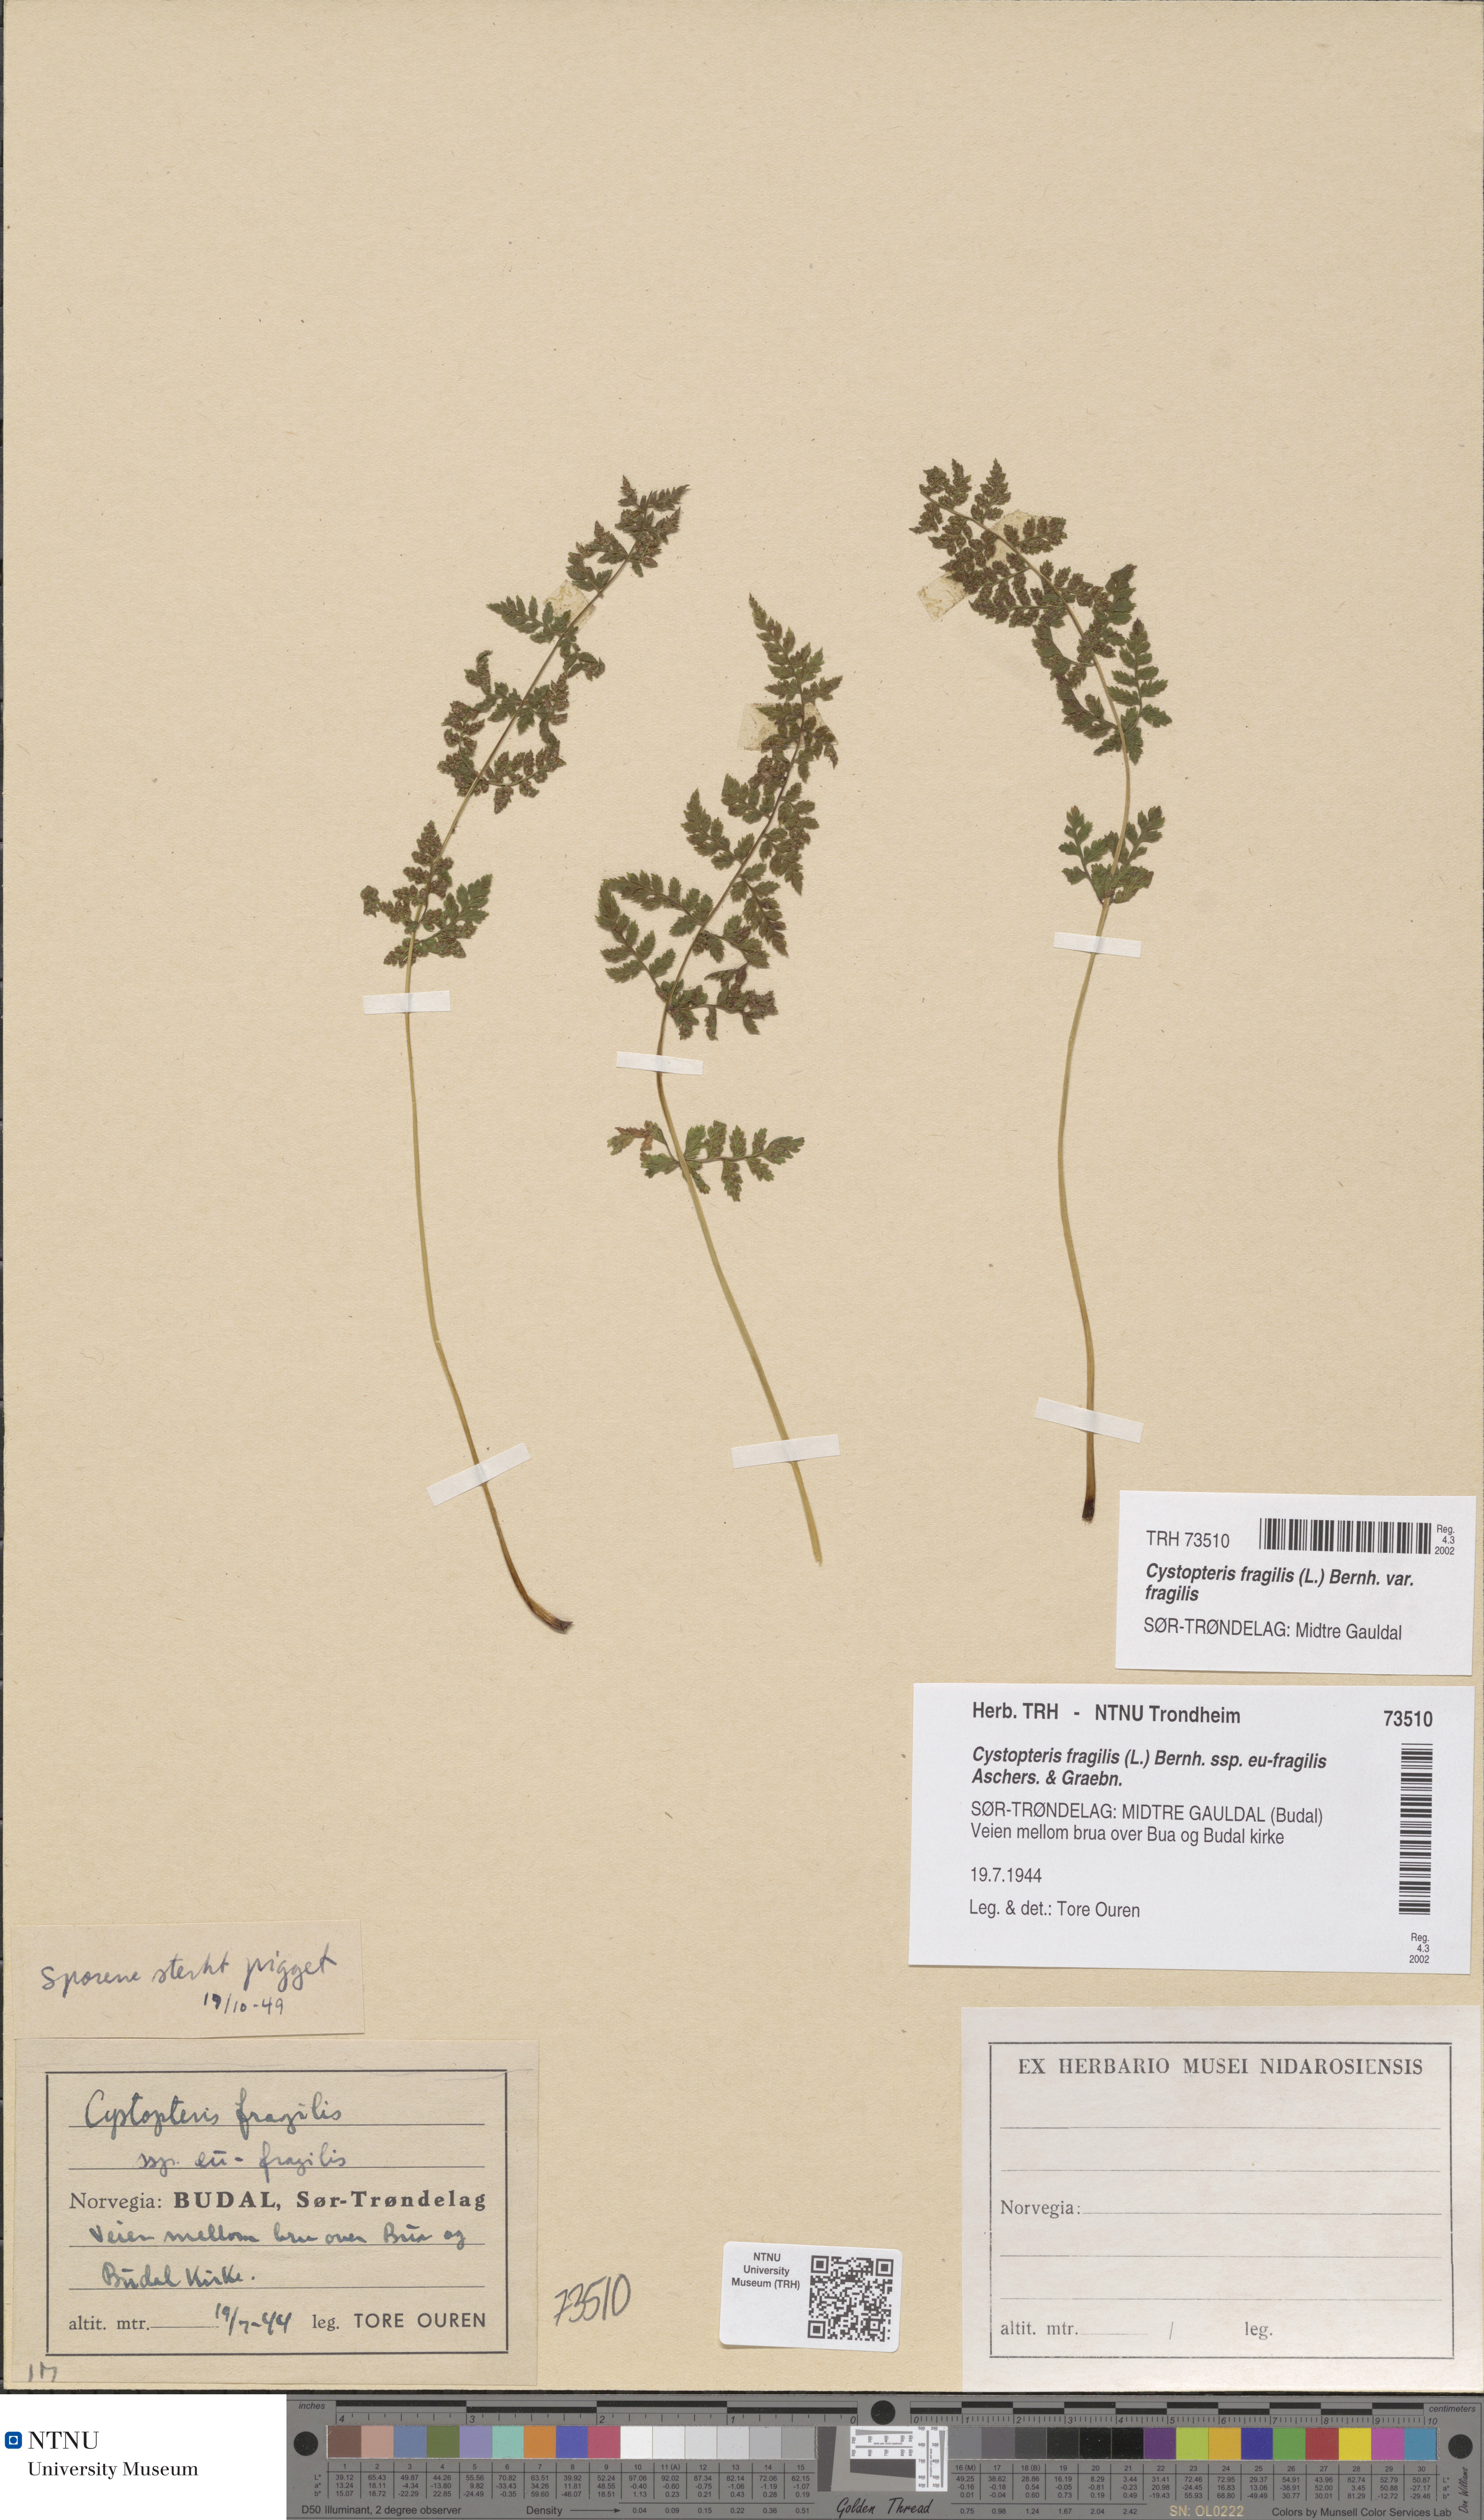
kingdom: Plantae
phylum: Tracheophyta
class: Polypodiopsida
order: Polypodiales
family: Cystopteridaceae
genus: Cystopteris
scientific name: Cystopteris fragilis
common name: Brittle bladder fern
